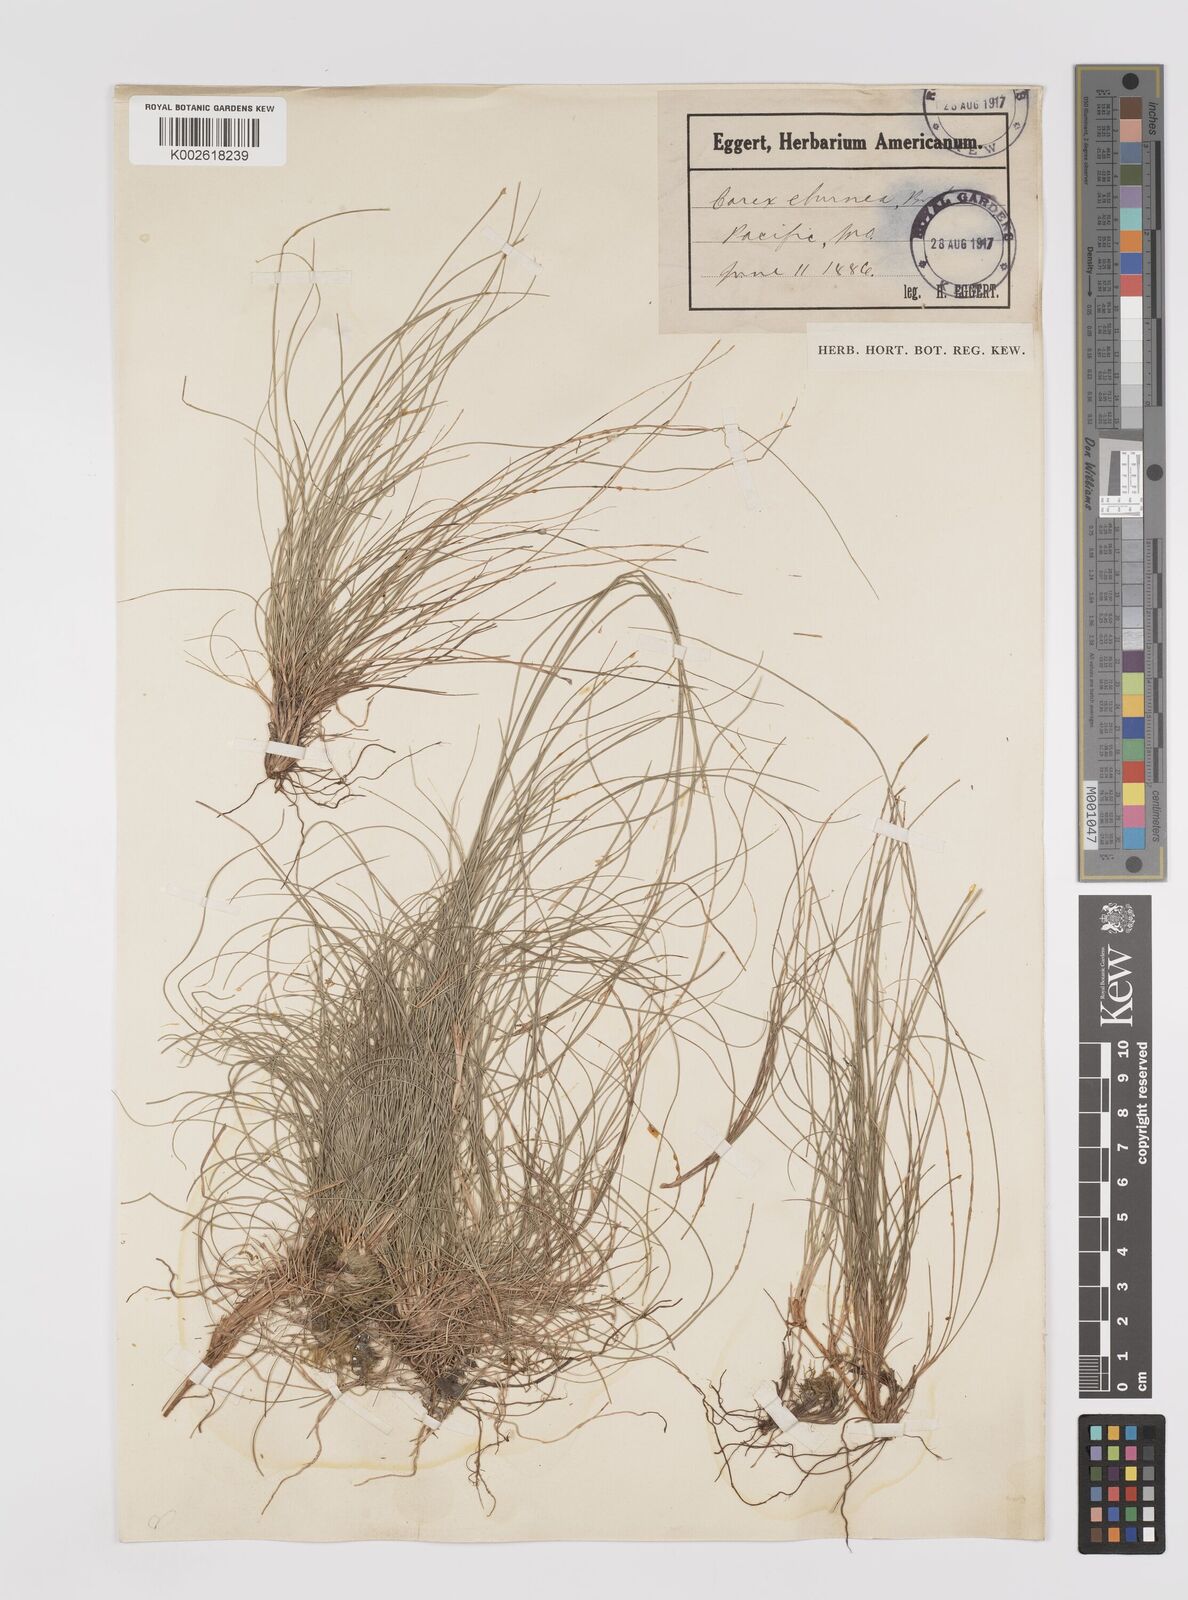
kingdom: Plantae
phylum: Tracheophyta
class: Liliopsida
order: Poales
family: Cyperaceae
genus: Carex
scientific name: Carex eburnea
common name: Bristle-leaved sedge
